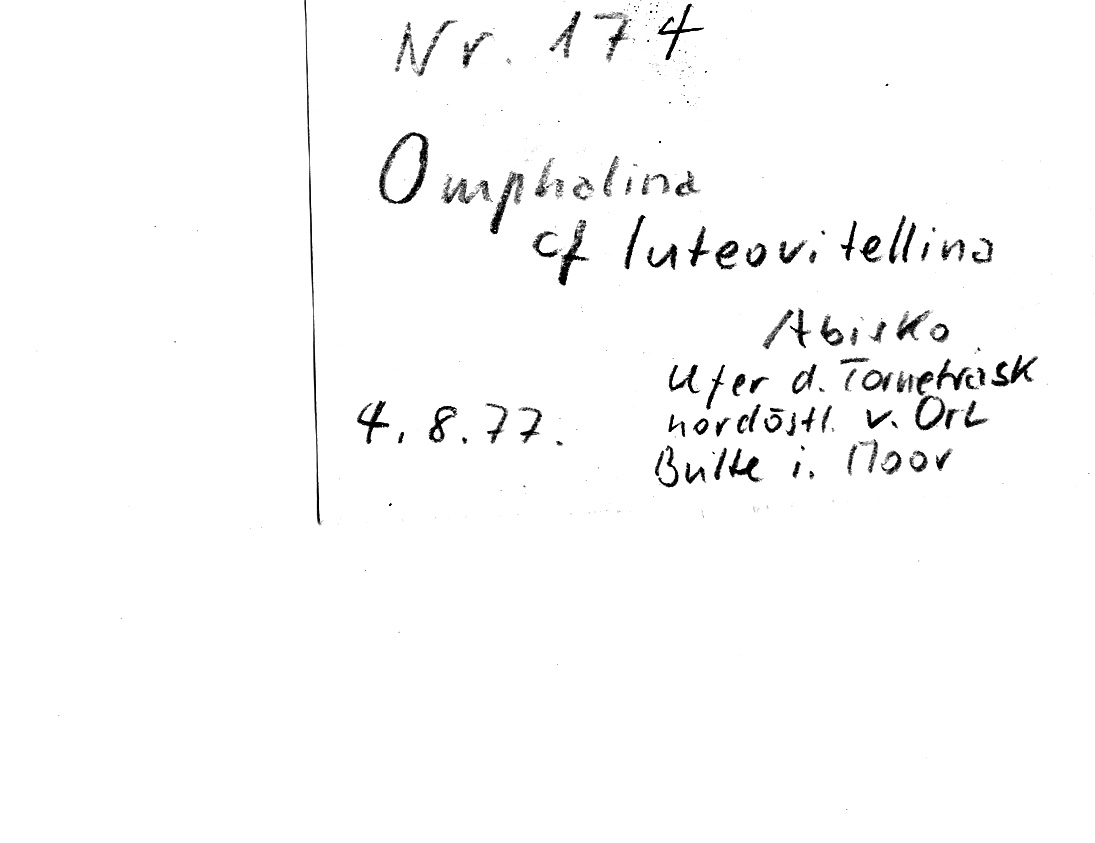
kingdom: Fungi
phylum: Basidiomycota
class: Agaricomycetes
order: Agaricales
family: Hygrophoraceae
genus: Lichenomphalia
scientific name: Lichenomphalia luteovitellina
